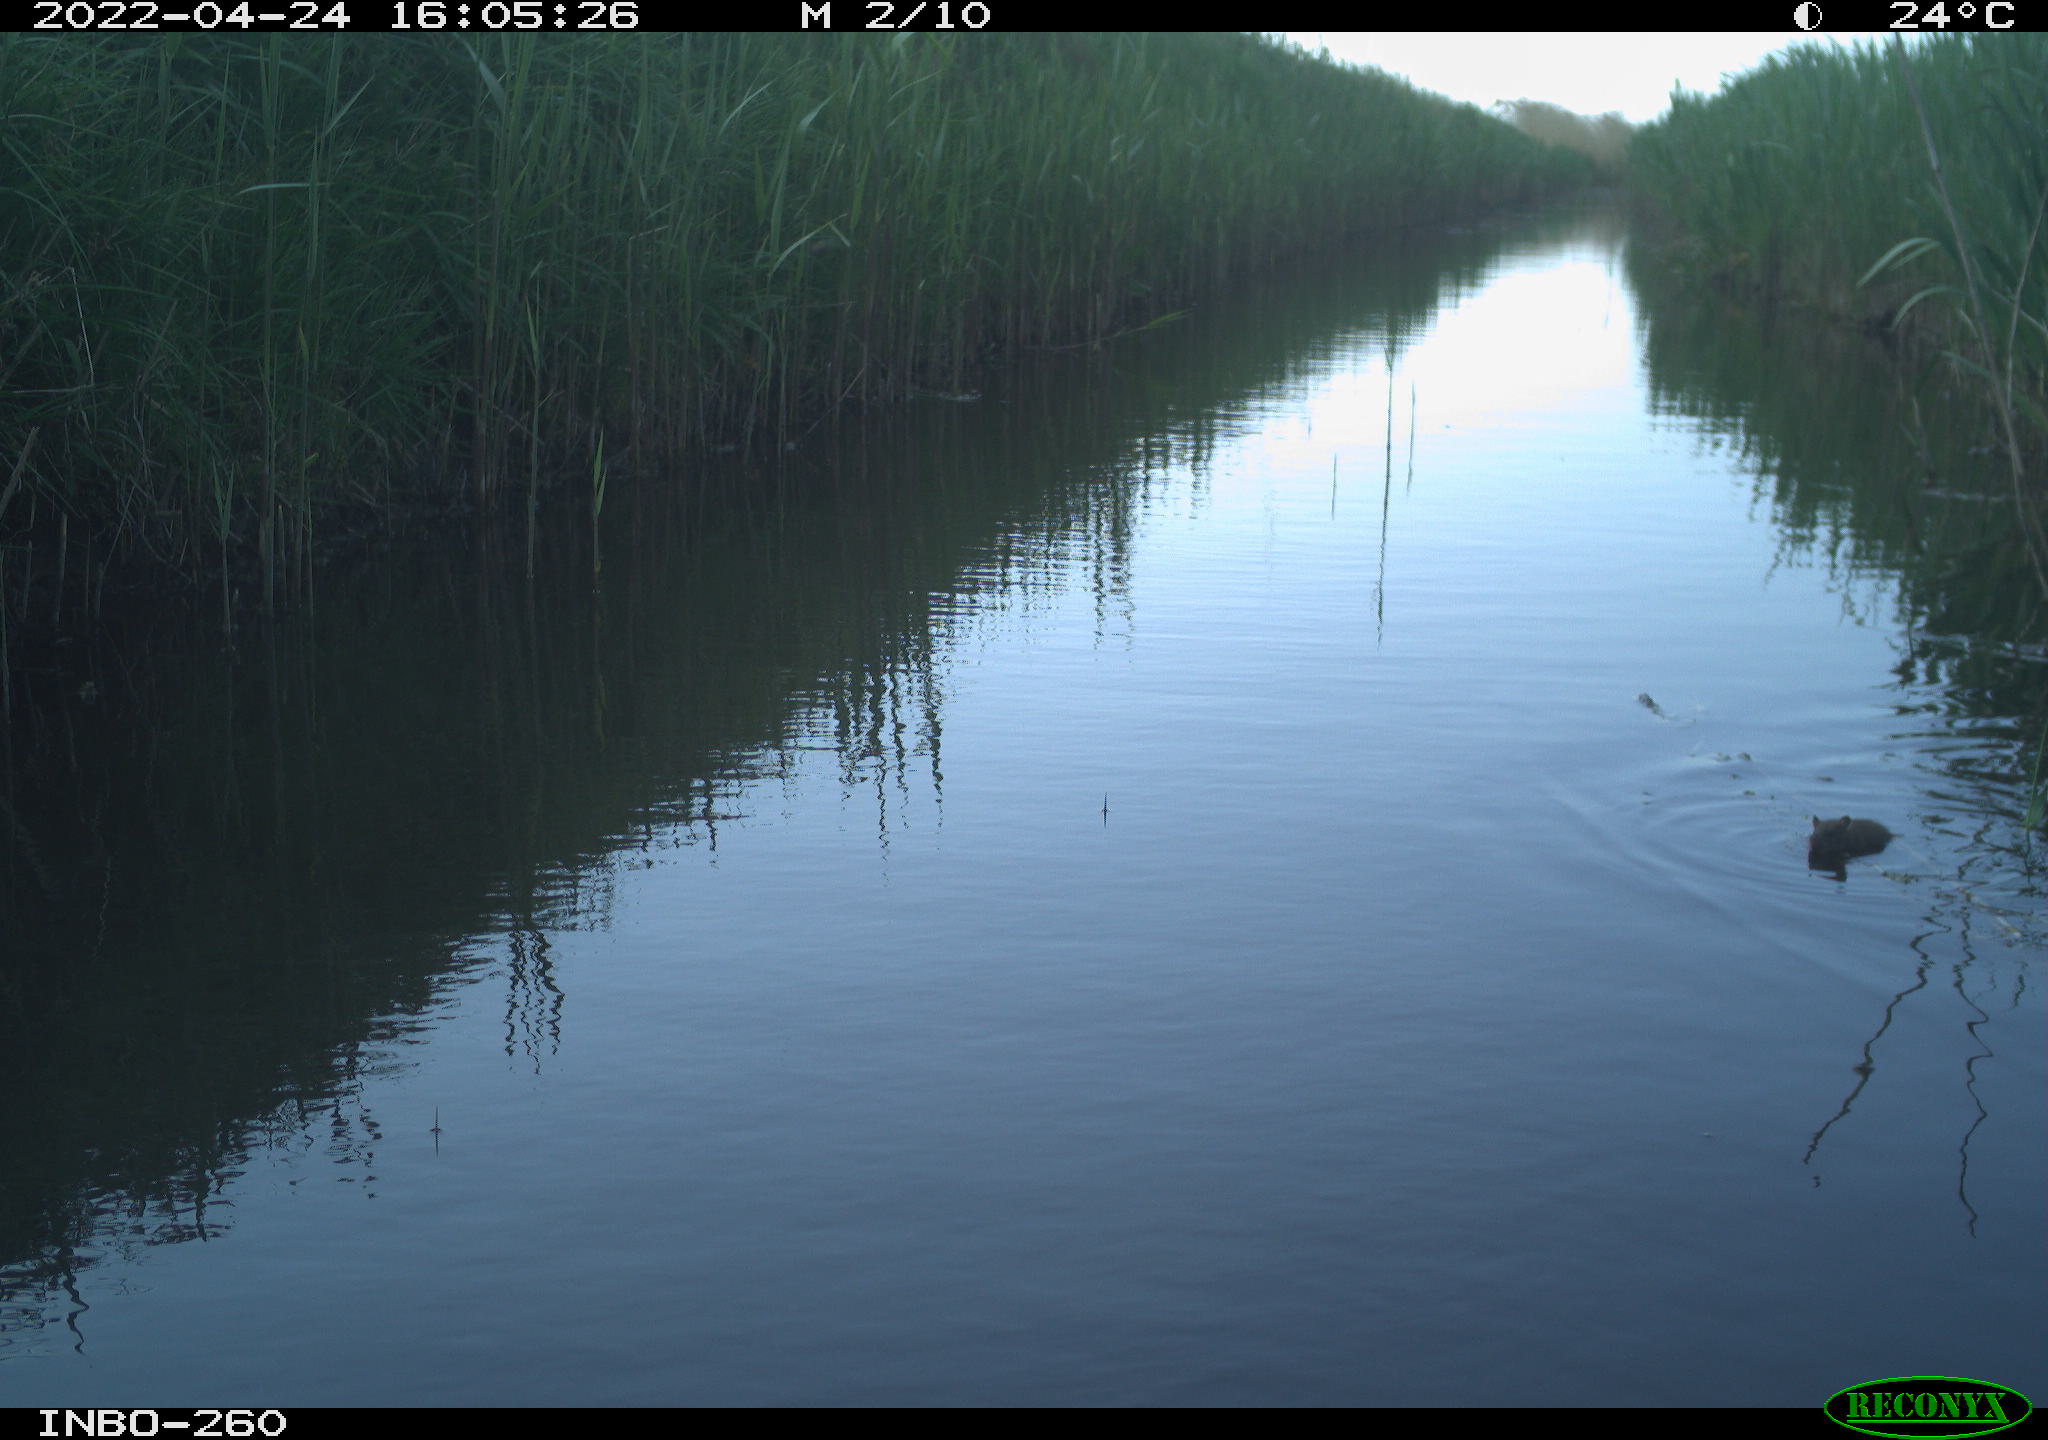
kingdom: Animalia
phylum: Chordata
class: Mammalia
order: Rodentia
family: Muridae
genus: Rattus
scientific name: Rattus norvegicus
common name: Brown rat
